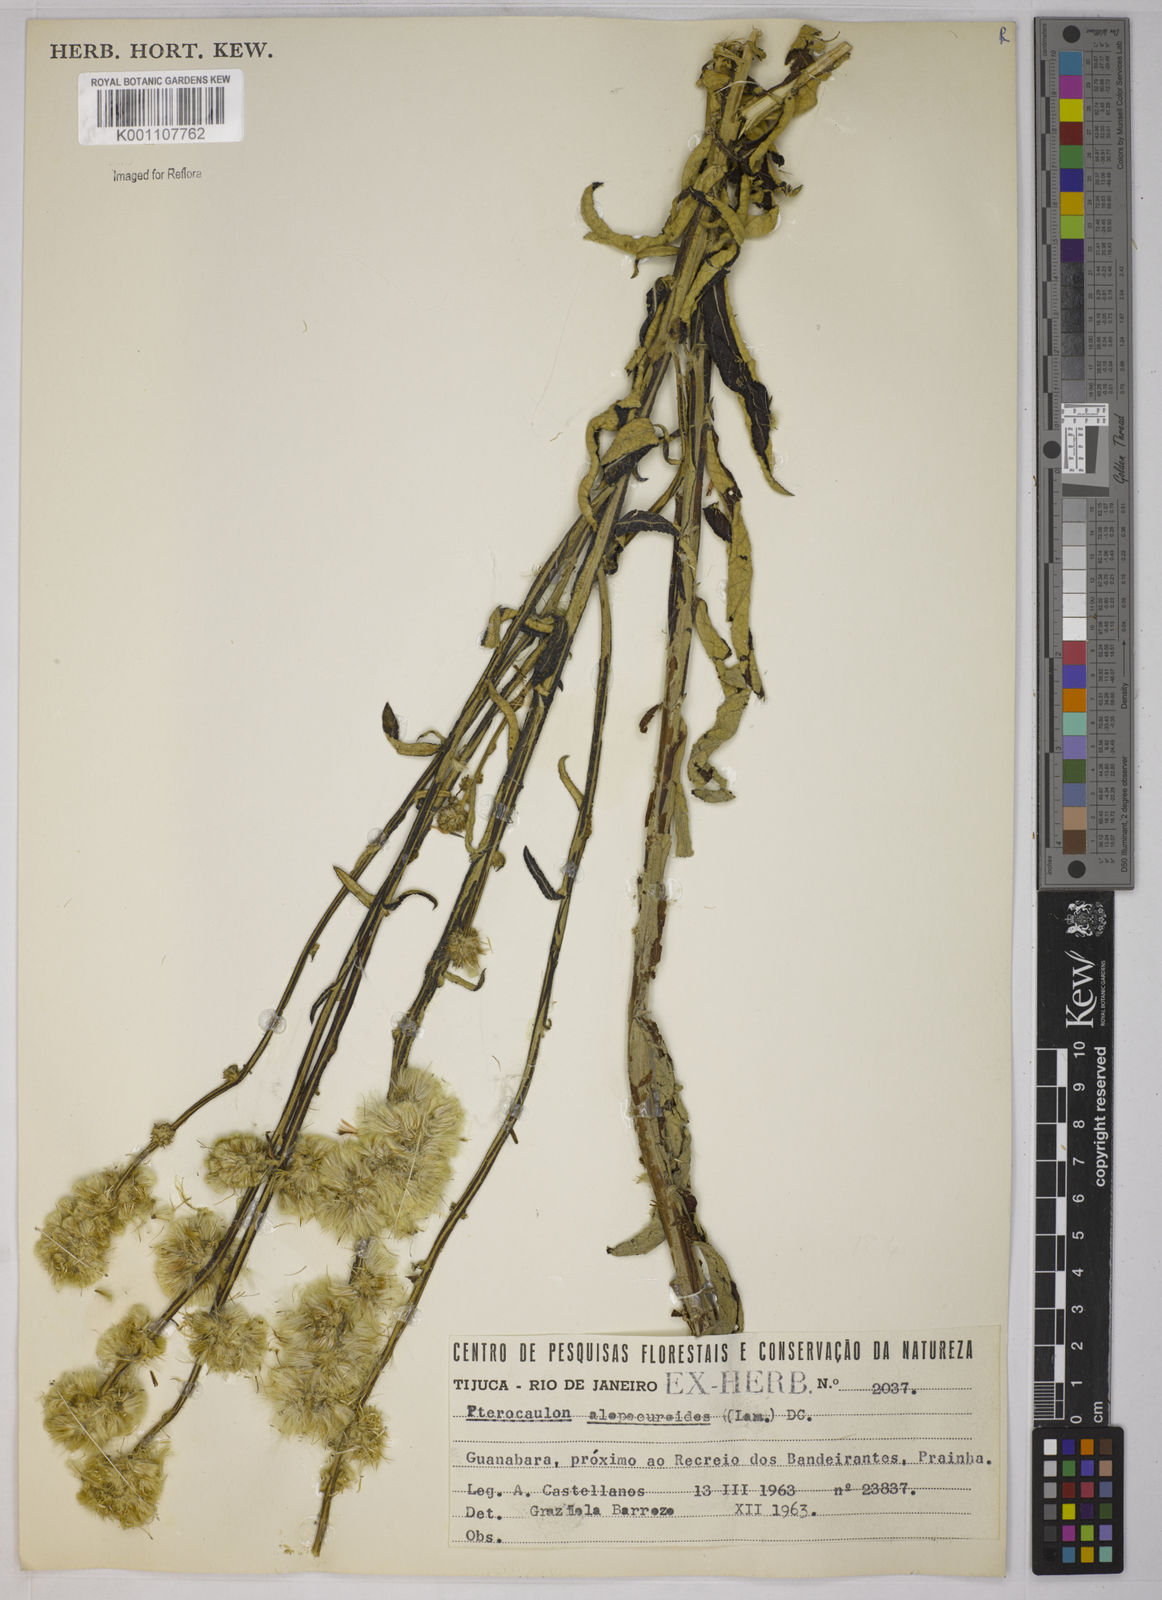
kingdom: Plantae
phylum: Tracheophyta
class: Magnoliopsida
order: Asterales
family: Asteraceae
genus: Pterocaulon
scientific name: Pterocaulon alopecuroides
